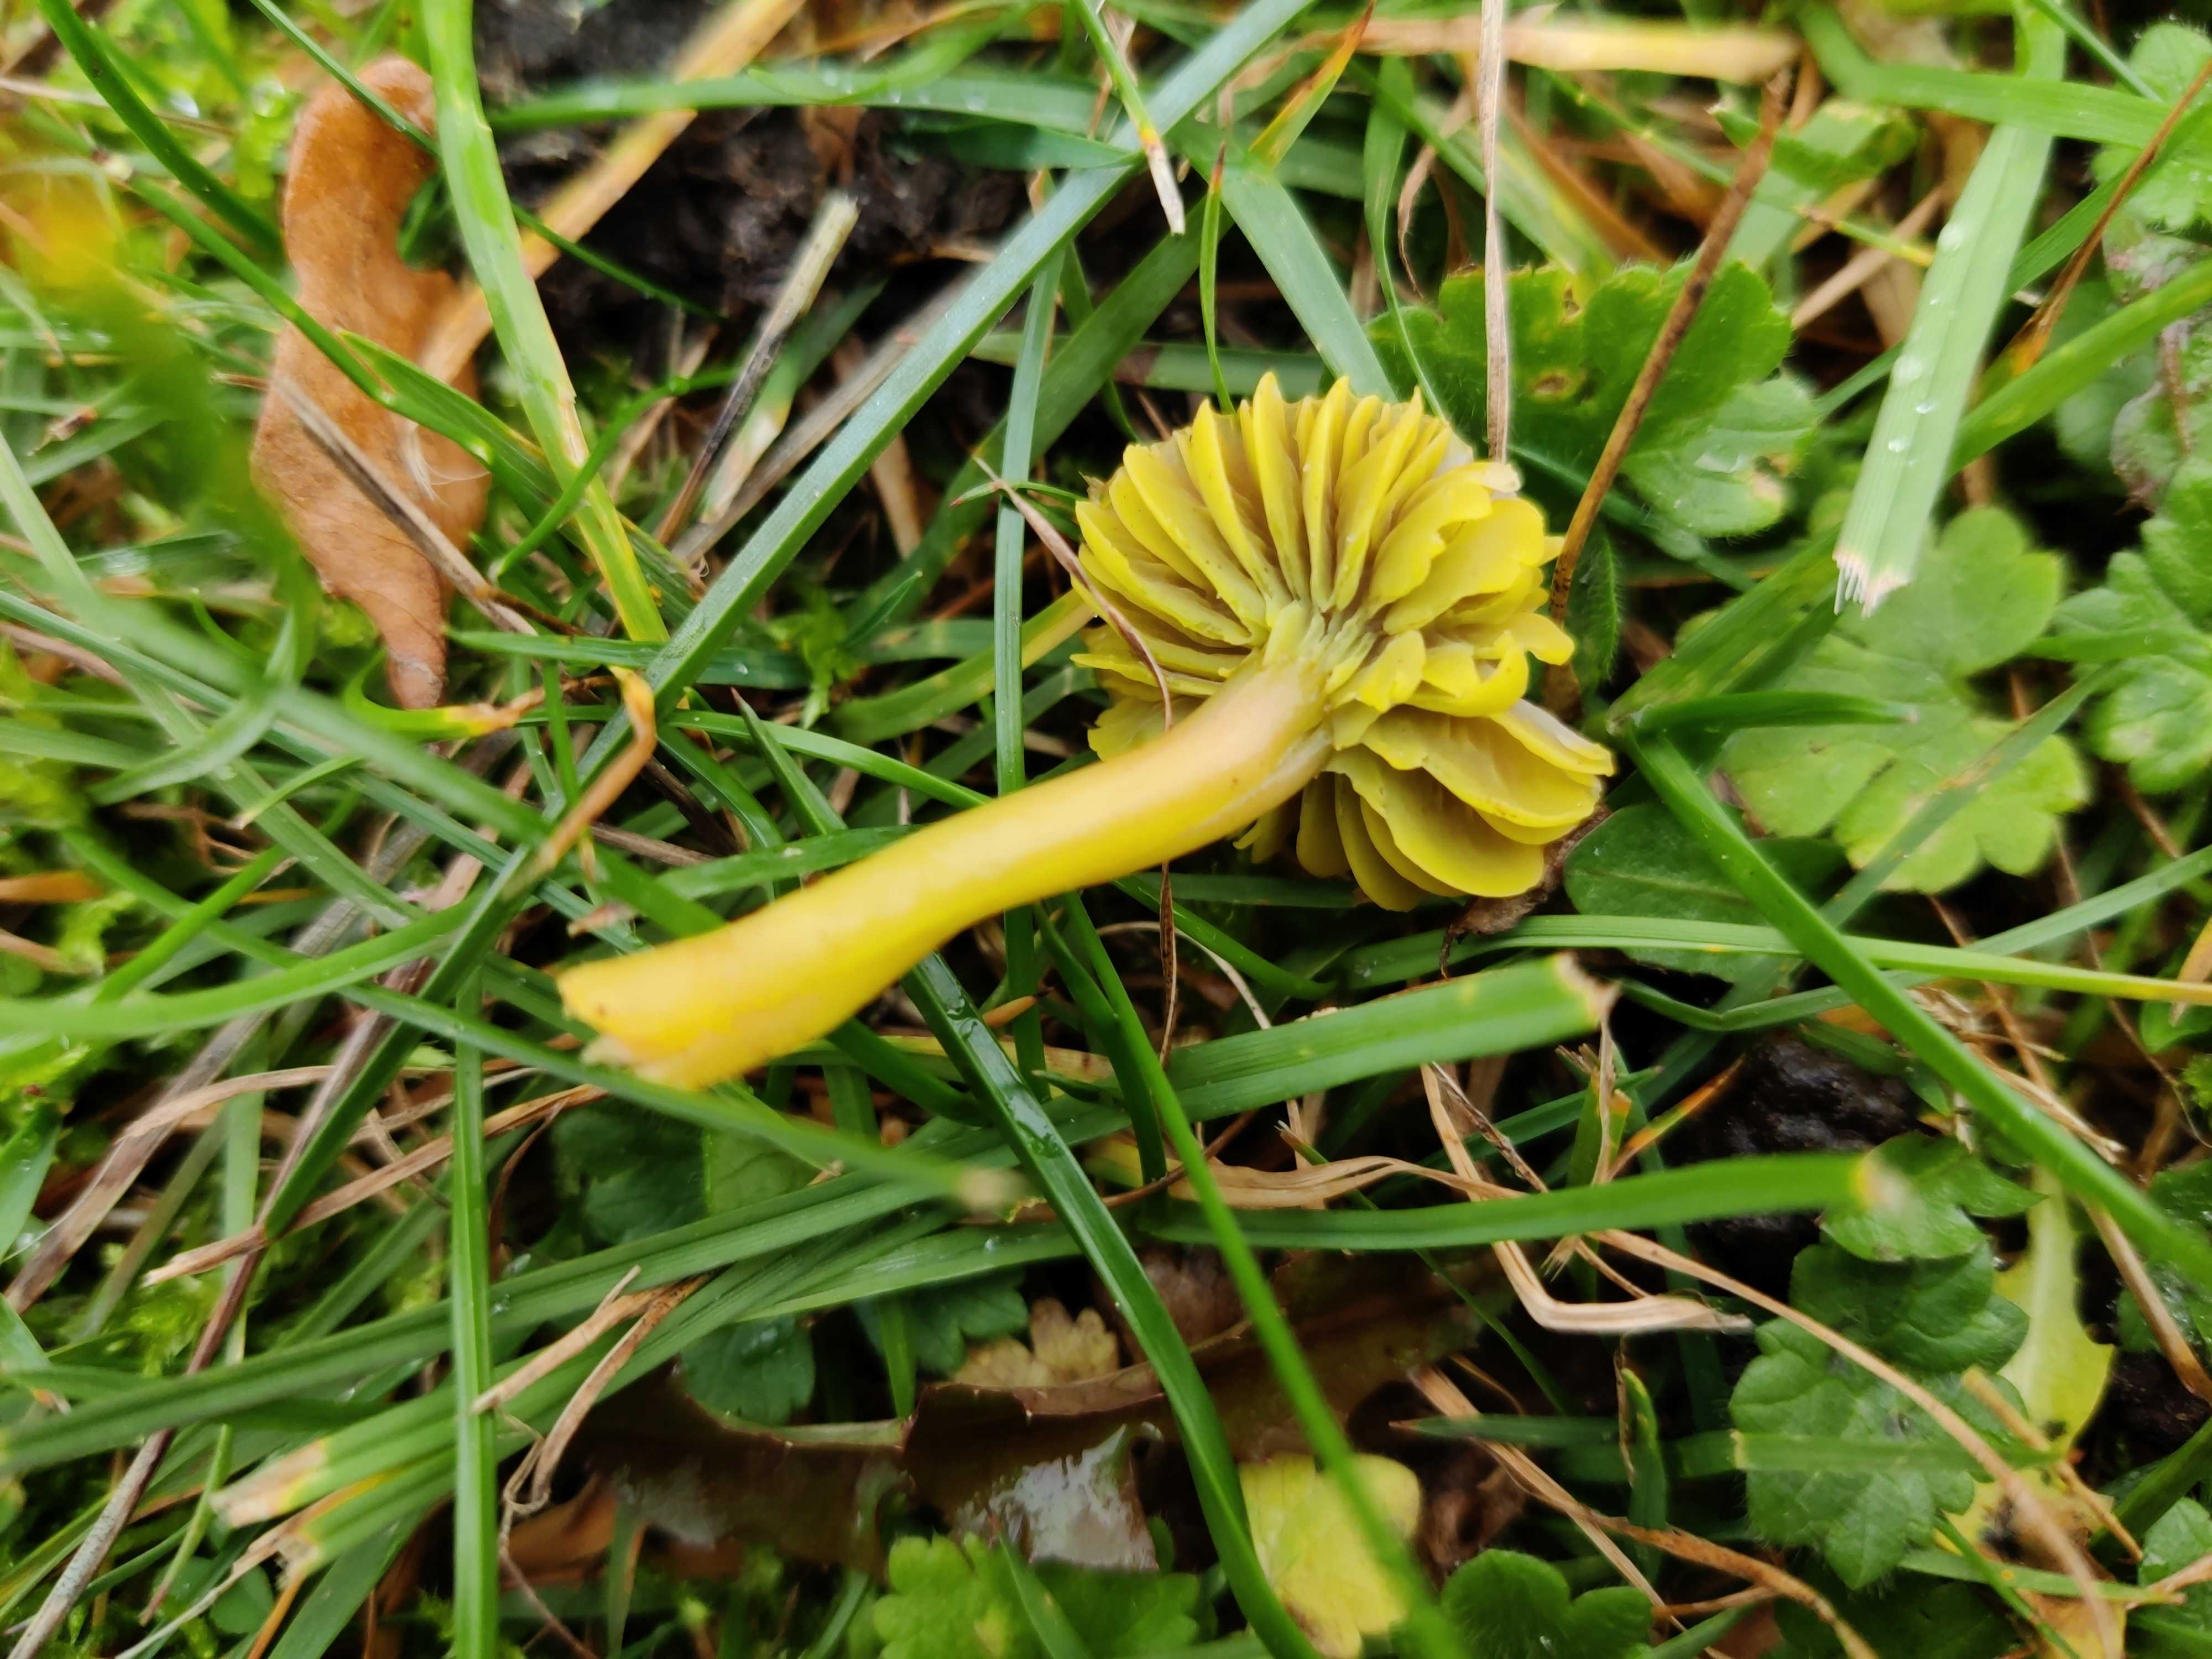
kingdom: Fungi
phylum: Basidiomycota
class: Agaricomycetes
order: Agaricales
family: Hygrophoraceae
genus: Gliophorus
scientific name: Gliophorus psittacinus
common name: papegøje-vokshat
